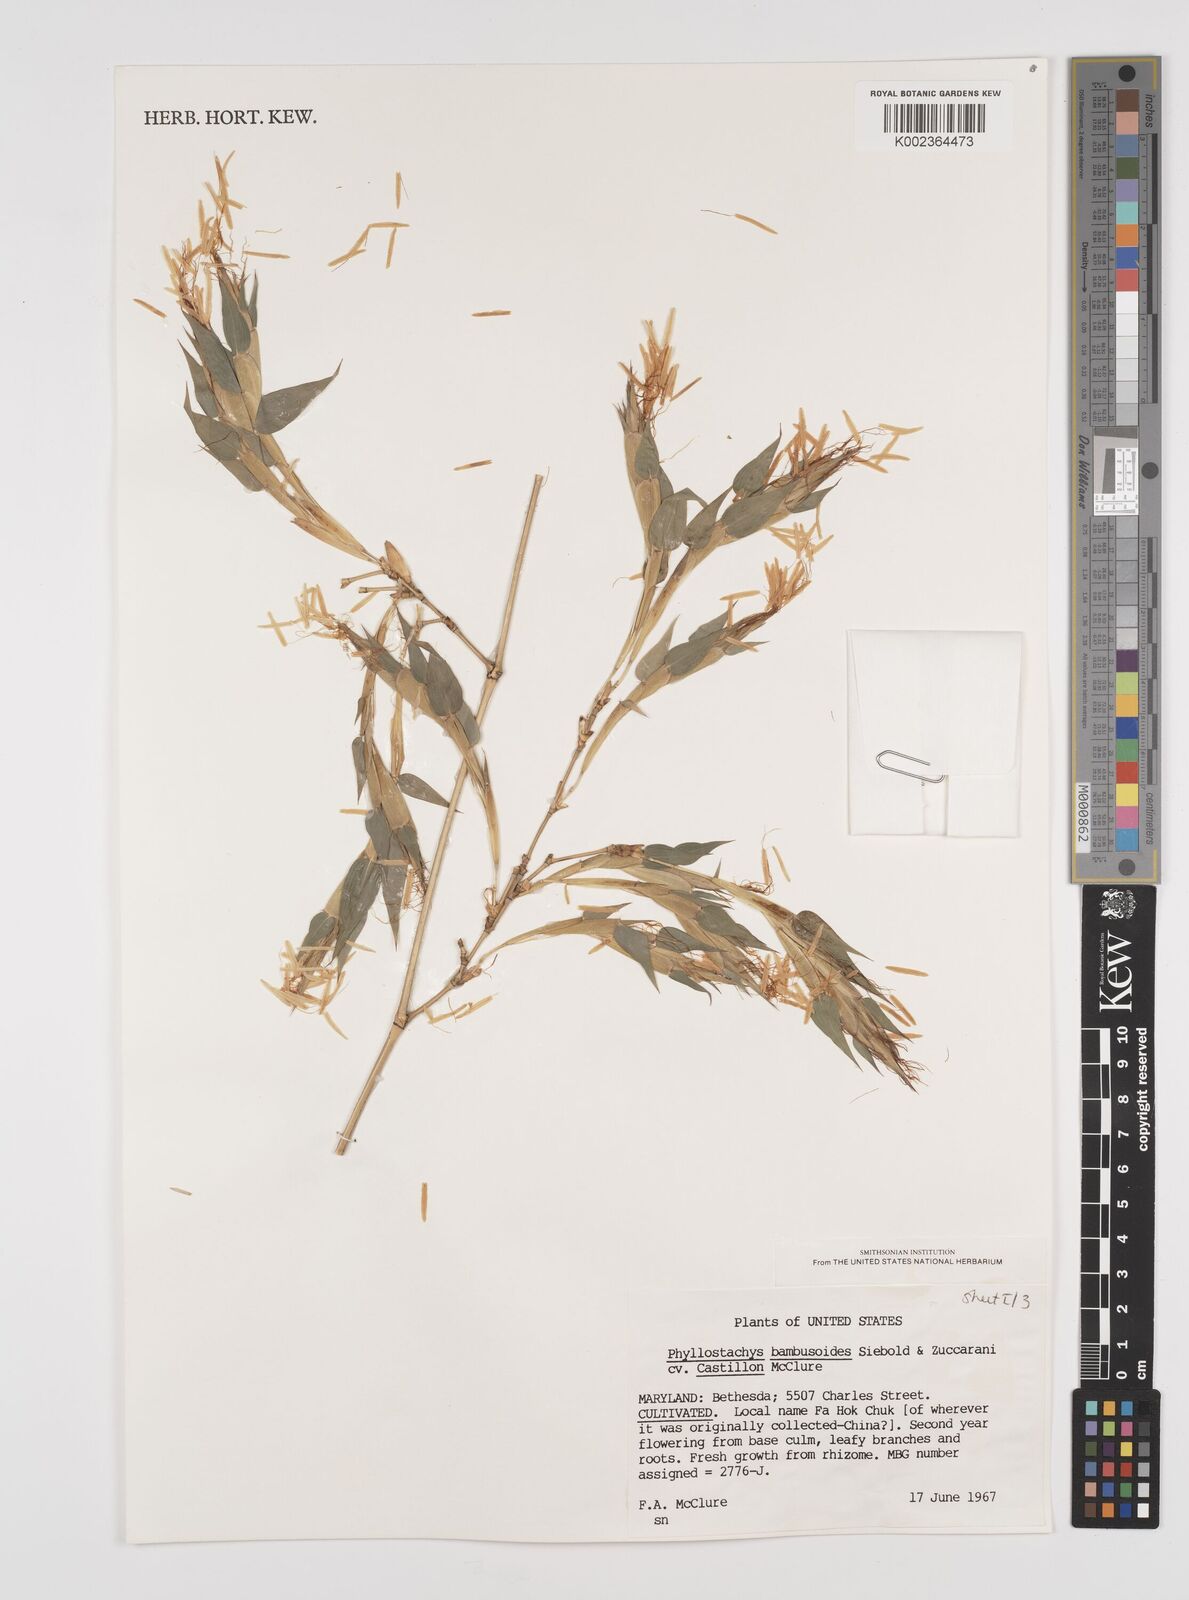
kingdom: Plantae
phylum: Tracheophyta
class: Liliopsida
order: Poales
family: Poaceae
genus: Phyllostachys
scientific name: Phyllostachys
